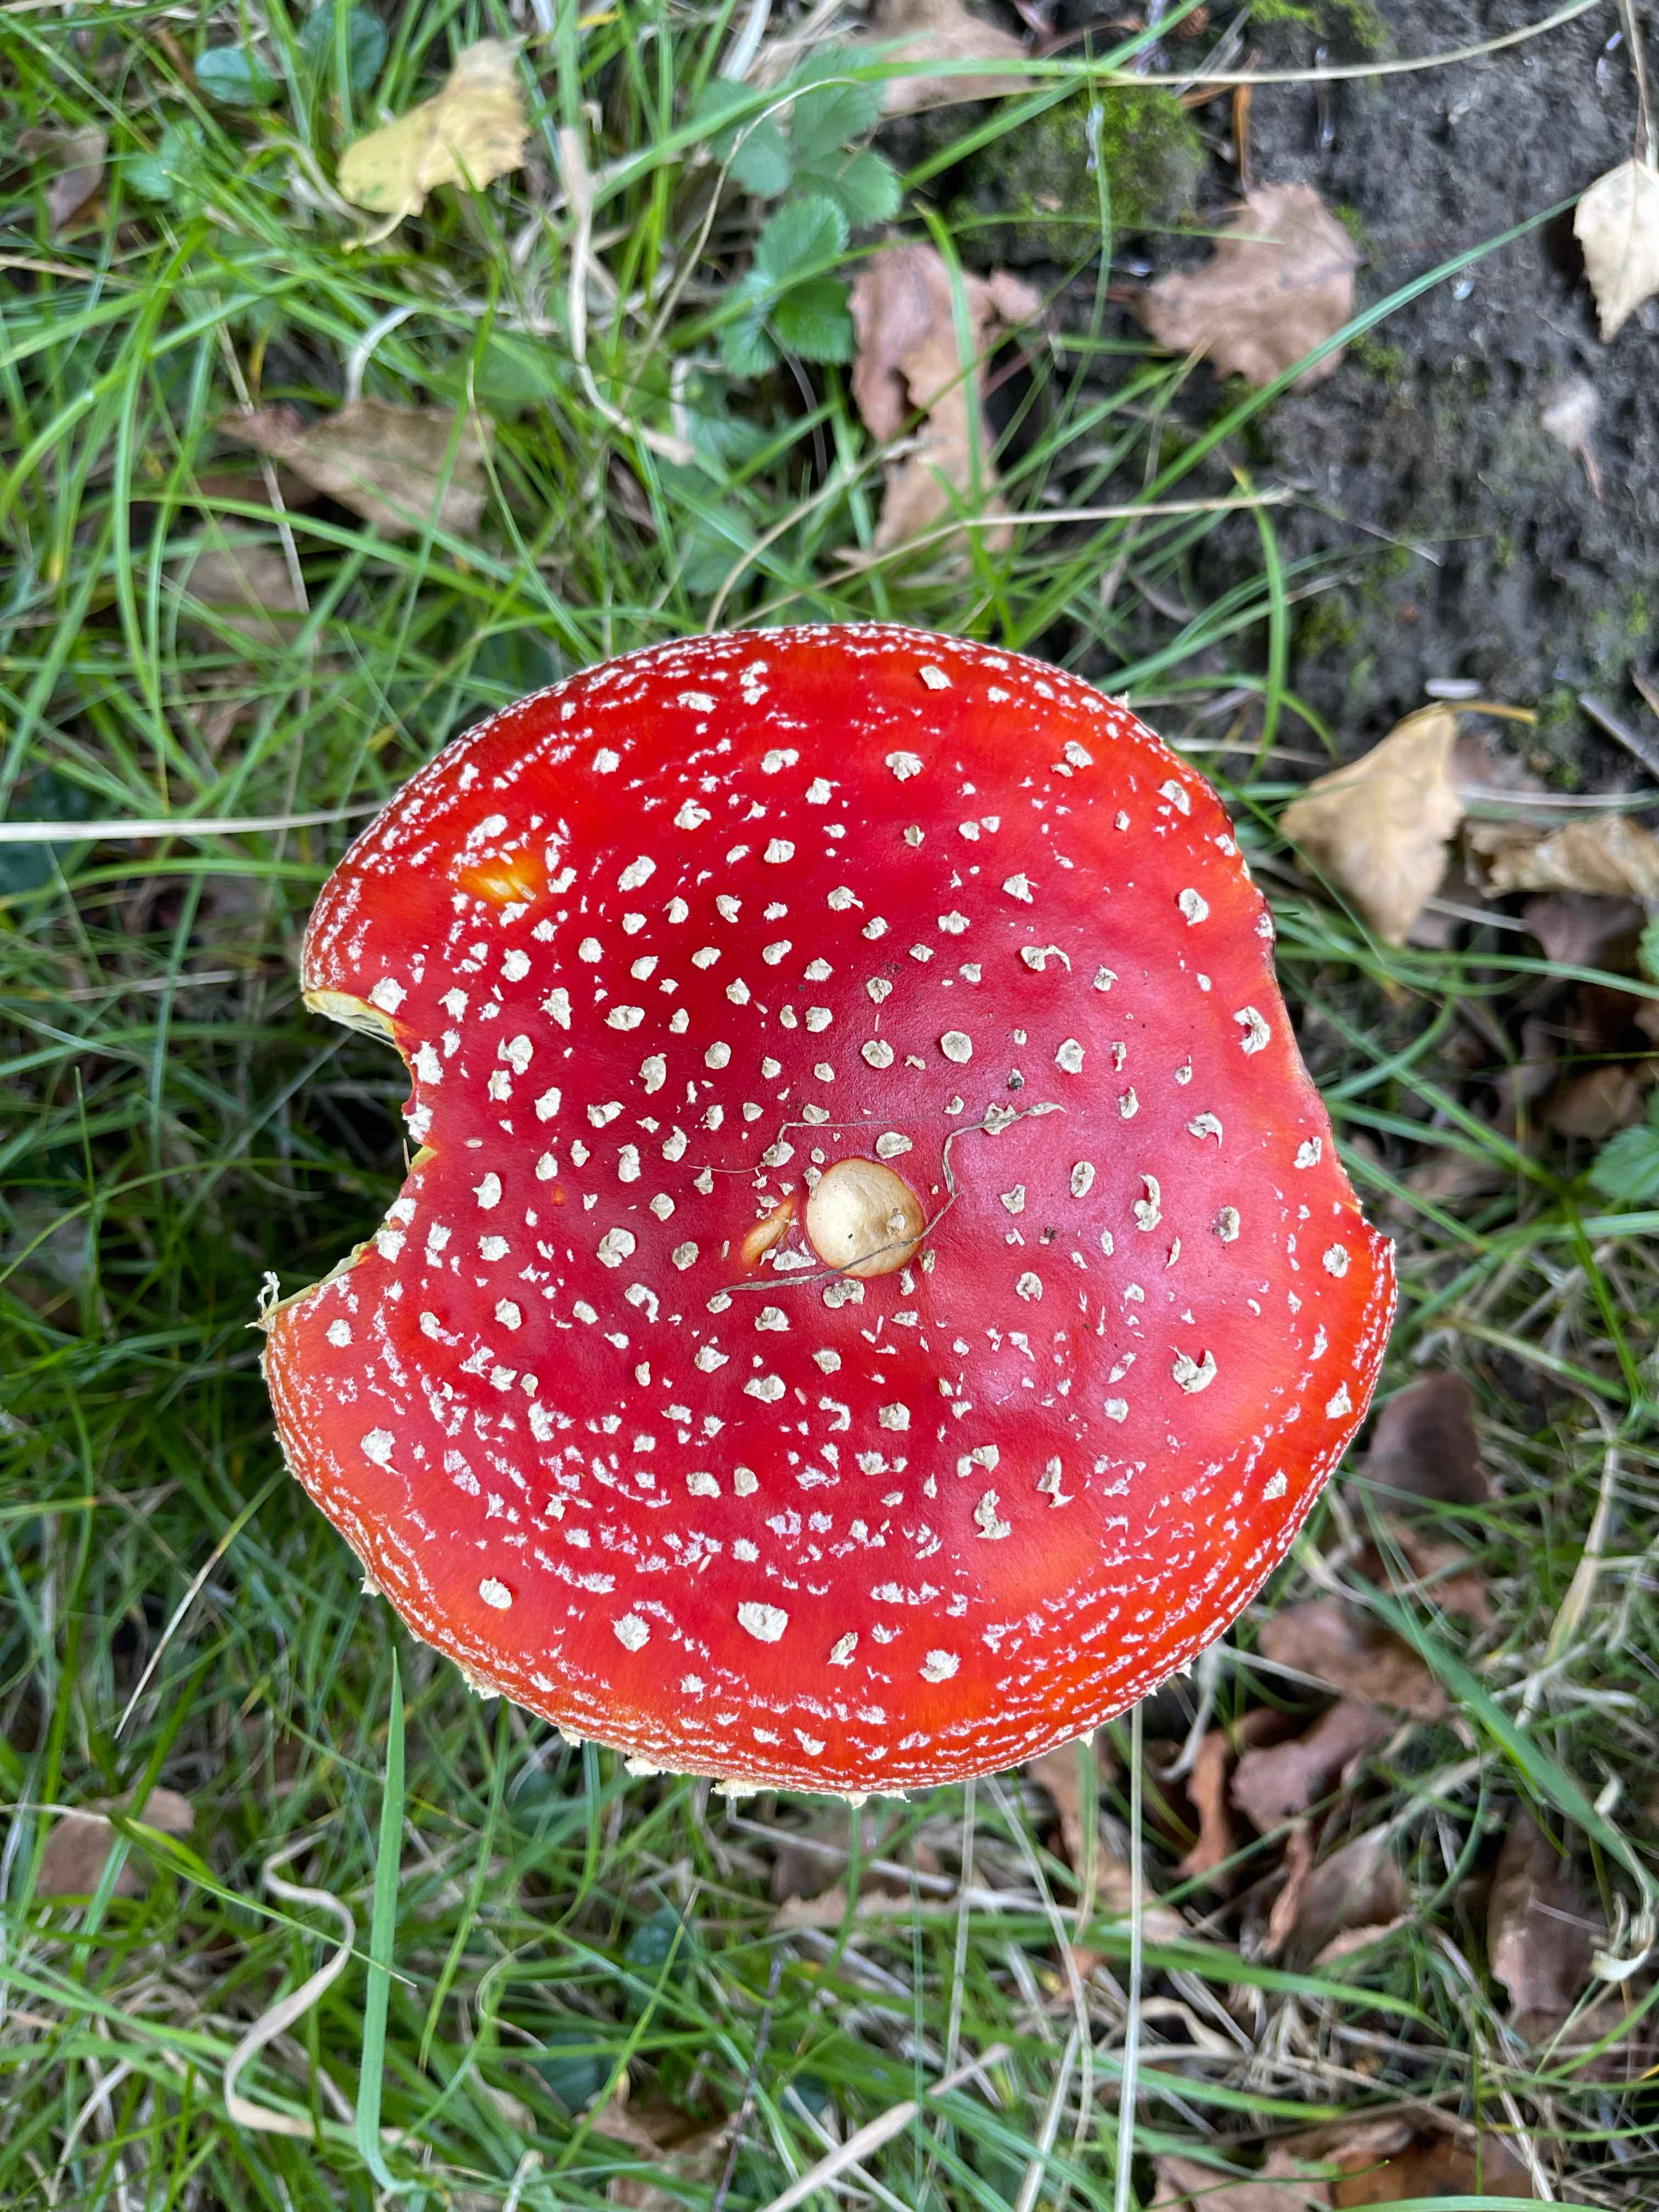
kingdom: Fungi
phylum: Basidiomycota
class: Agaricomycetes
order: Agaricales
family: Amanitaceae
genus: Amanita
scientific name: Amanita muscaria
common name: rød fluesvamp
